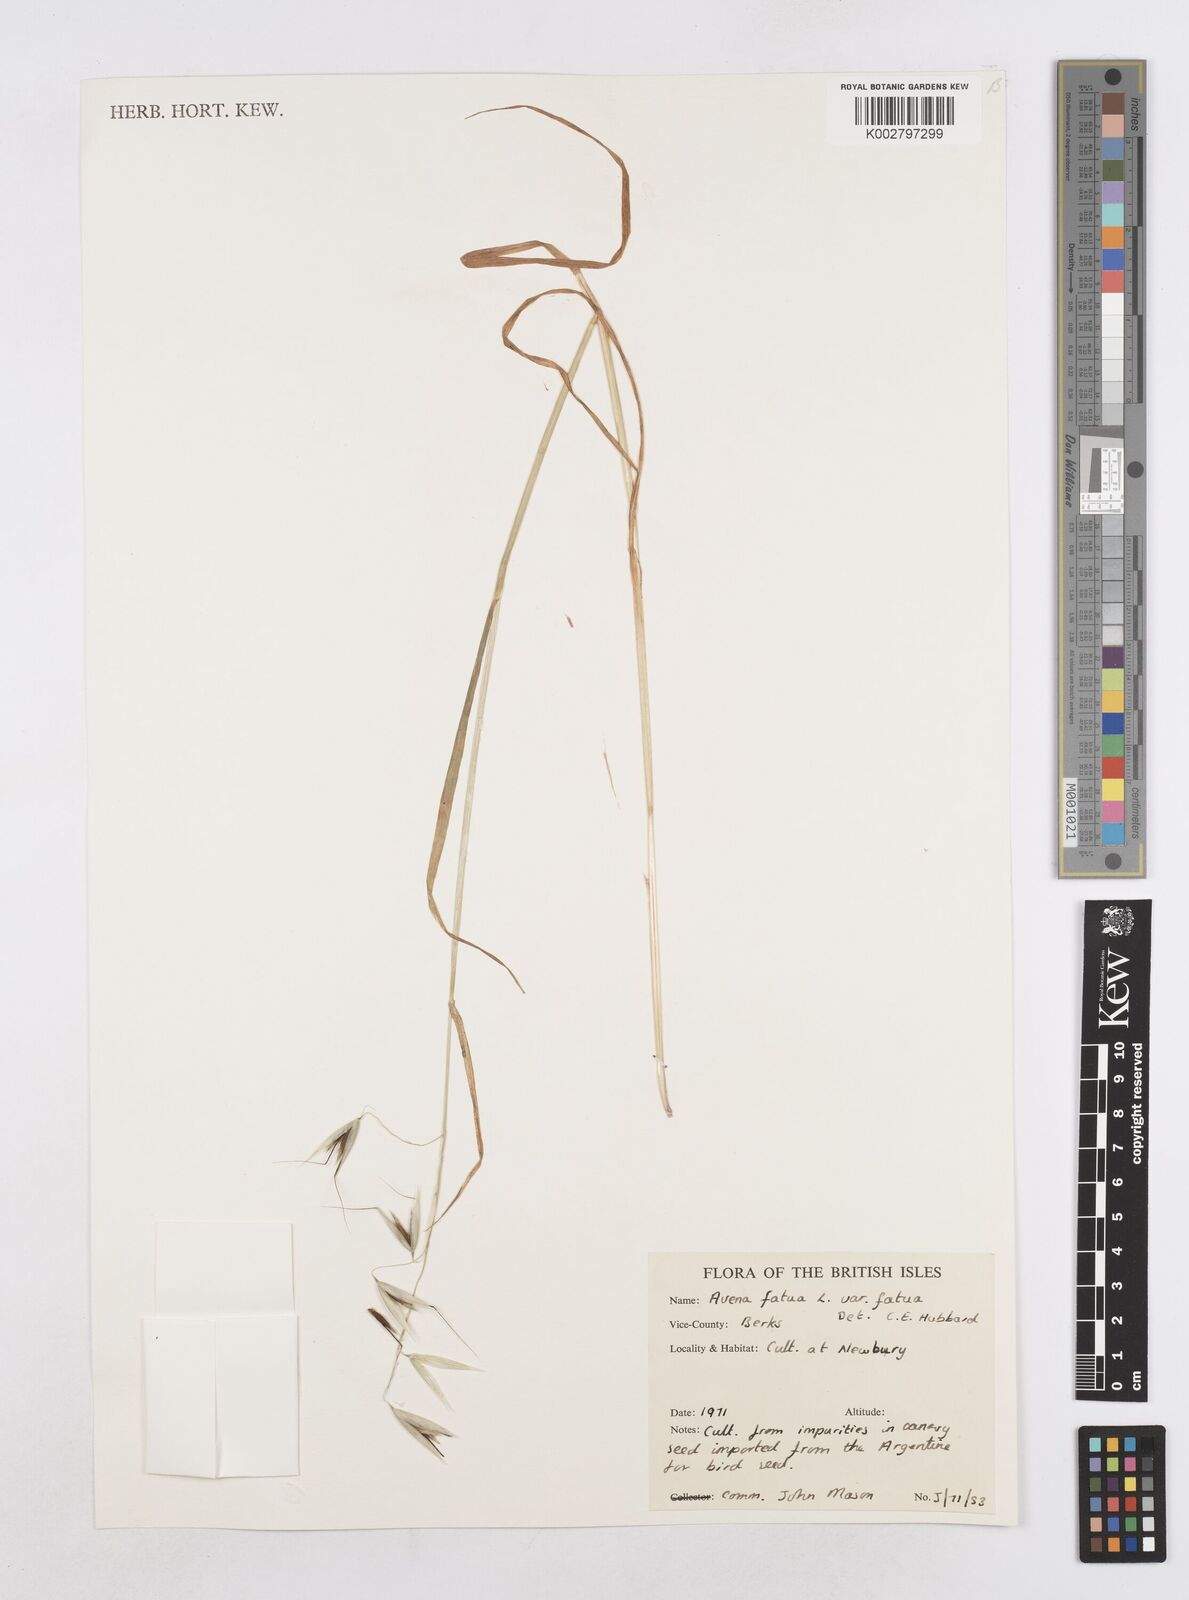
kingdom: Plantae
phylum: Tracheophyta
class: Liliopsida
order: Poales
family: Poaceae
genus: Avena
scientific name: Avena fatua
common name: Wild oat
